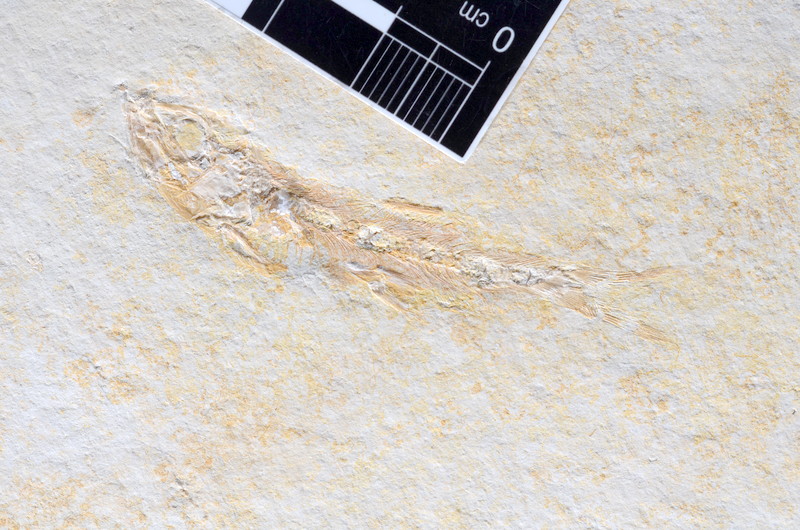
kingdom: Animalia
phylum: Chordata
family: Ascalaboidae
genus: Tharsis
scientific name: Tharsis dubius
